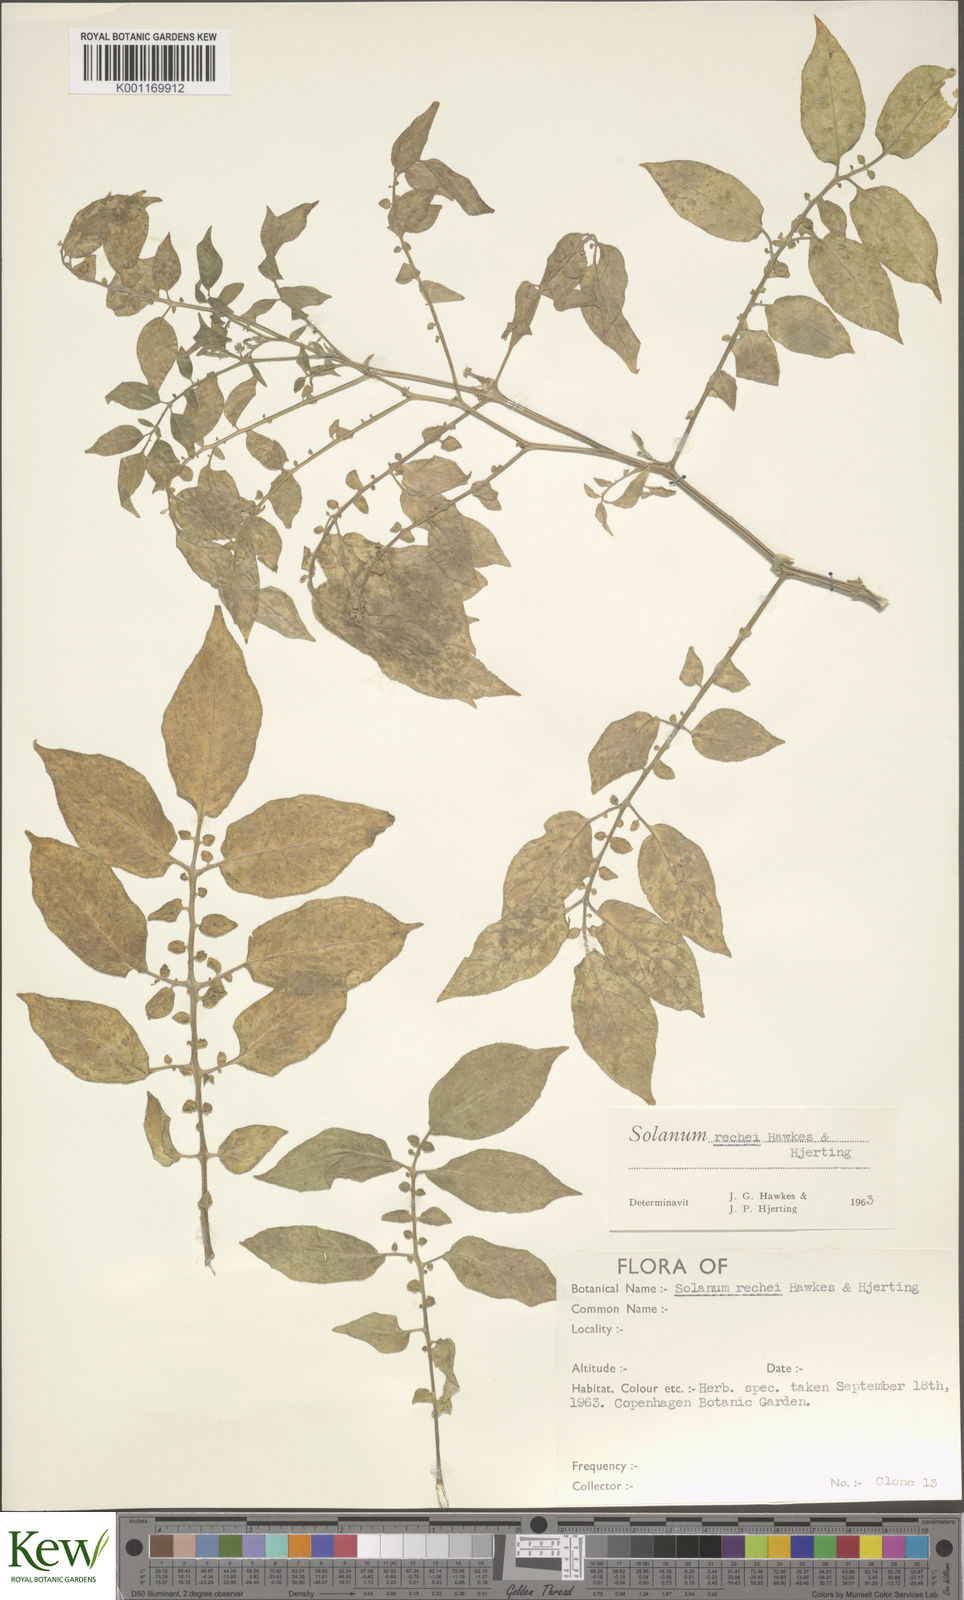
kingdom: Plantae
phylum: Tracheophyta
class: Magnoliopsida
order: Solanales
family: Solanaceae
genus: Solanum
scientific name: Solanum rechei
